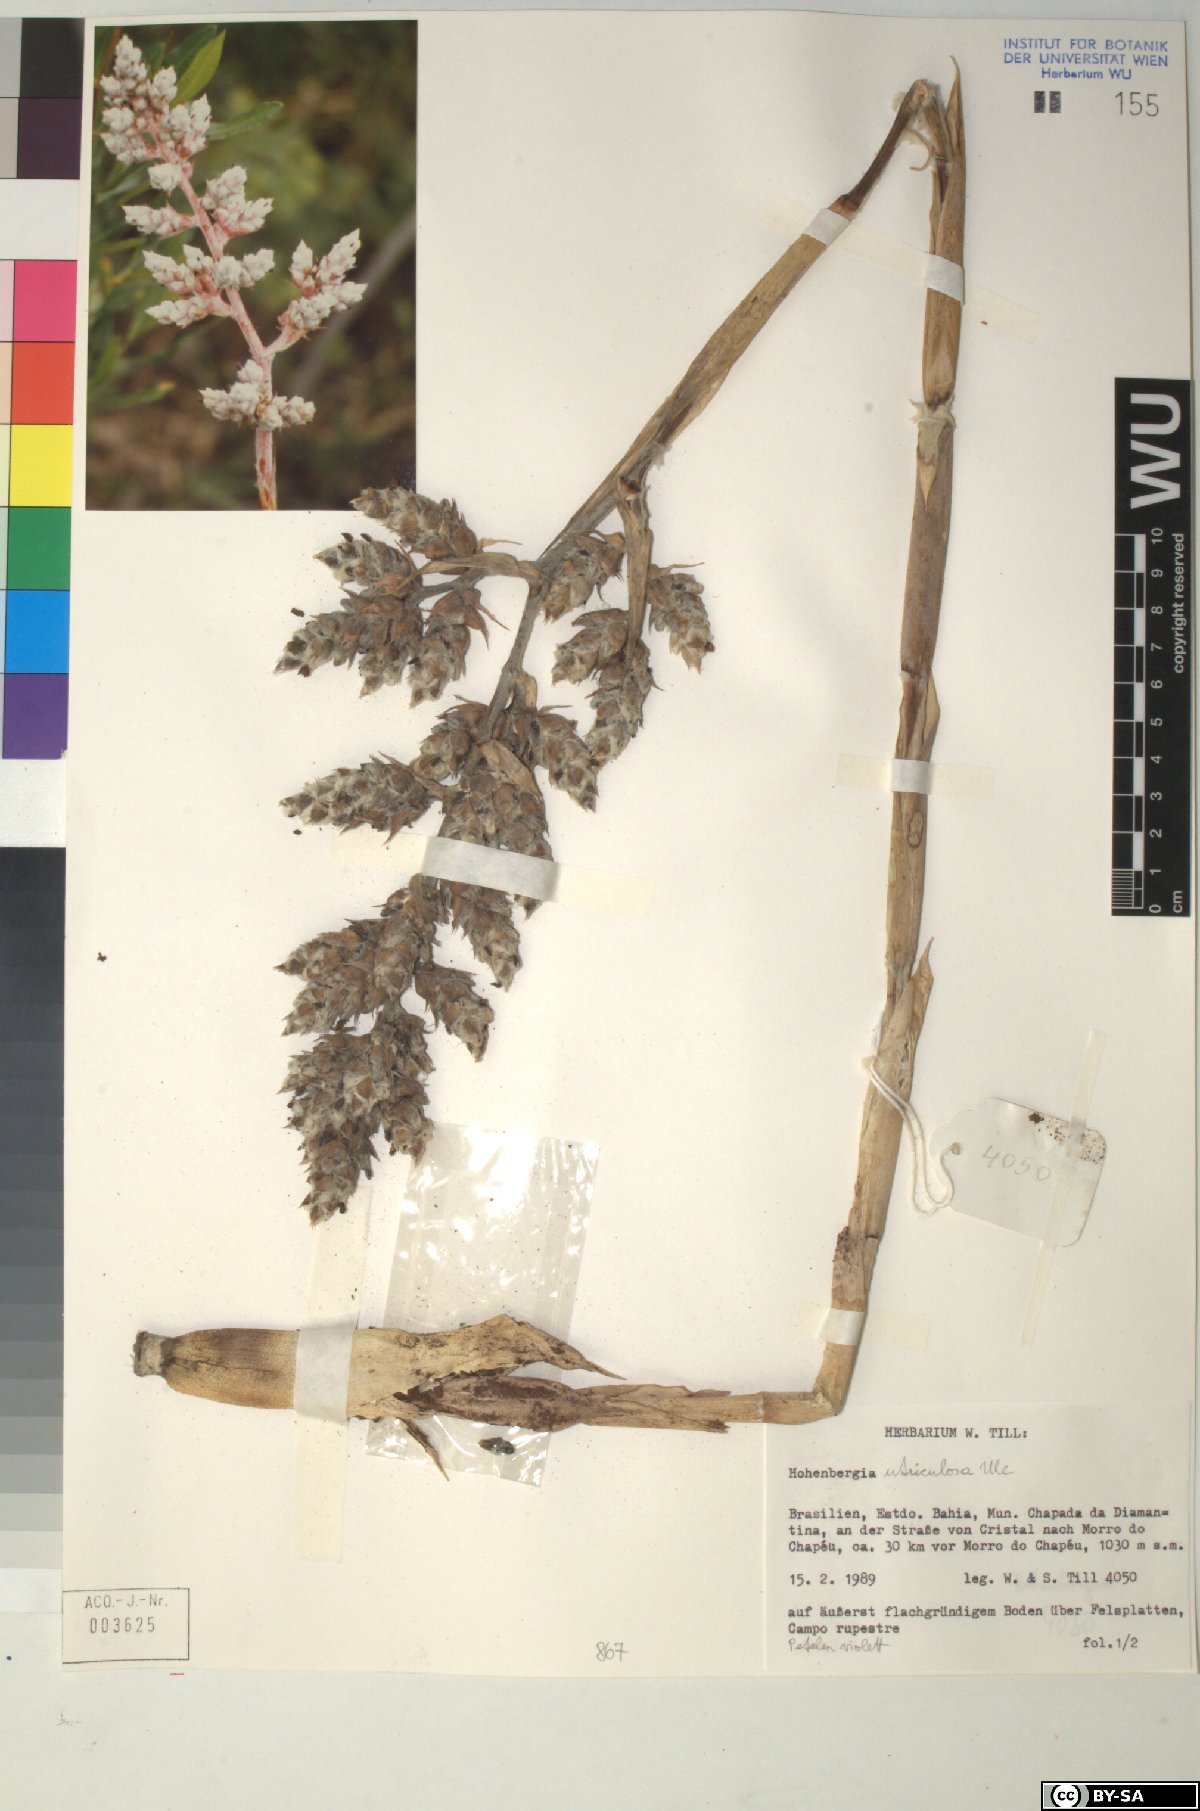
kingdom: Plantae
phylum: Tracheophyta
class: Liliopsida
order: Poales
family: Bromeliaceae
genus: Hohenbergia
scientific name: Hohenbergia
